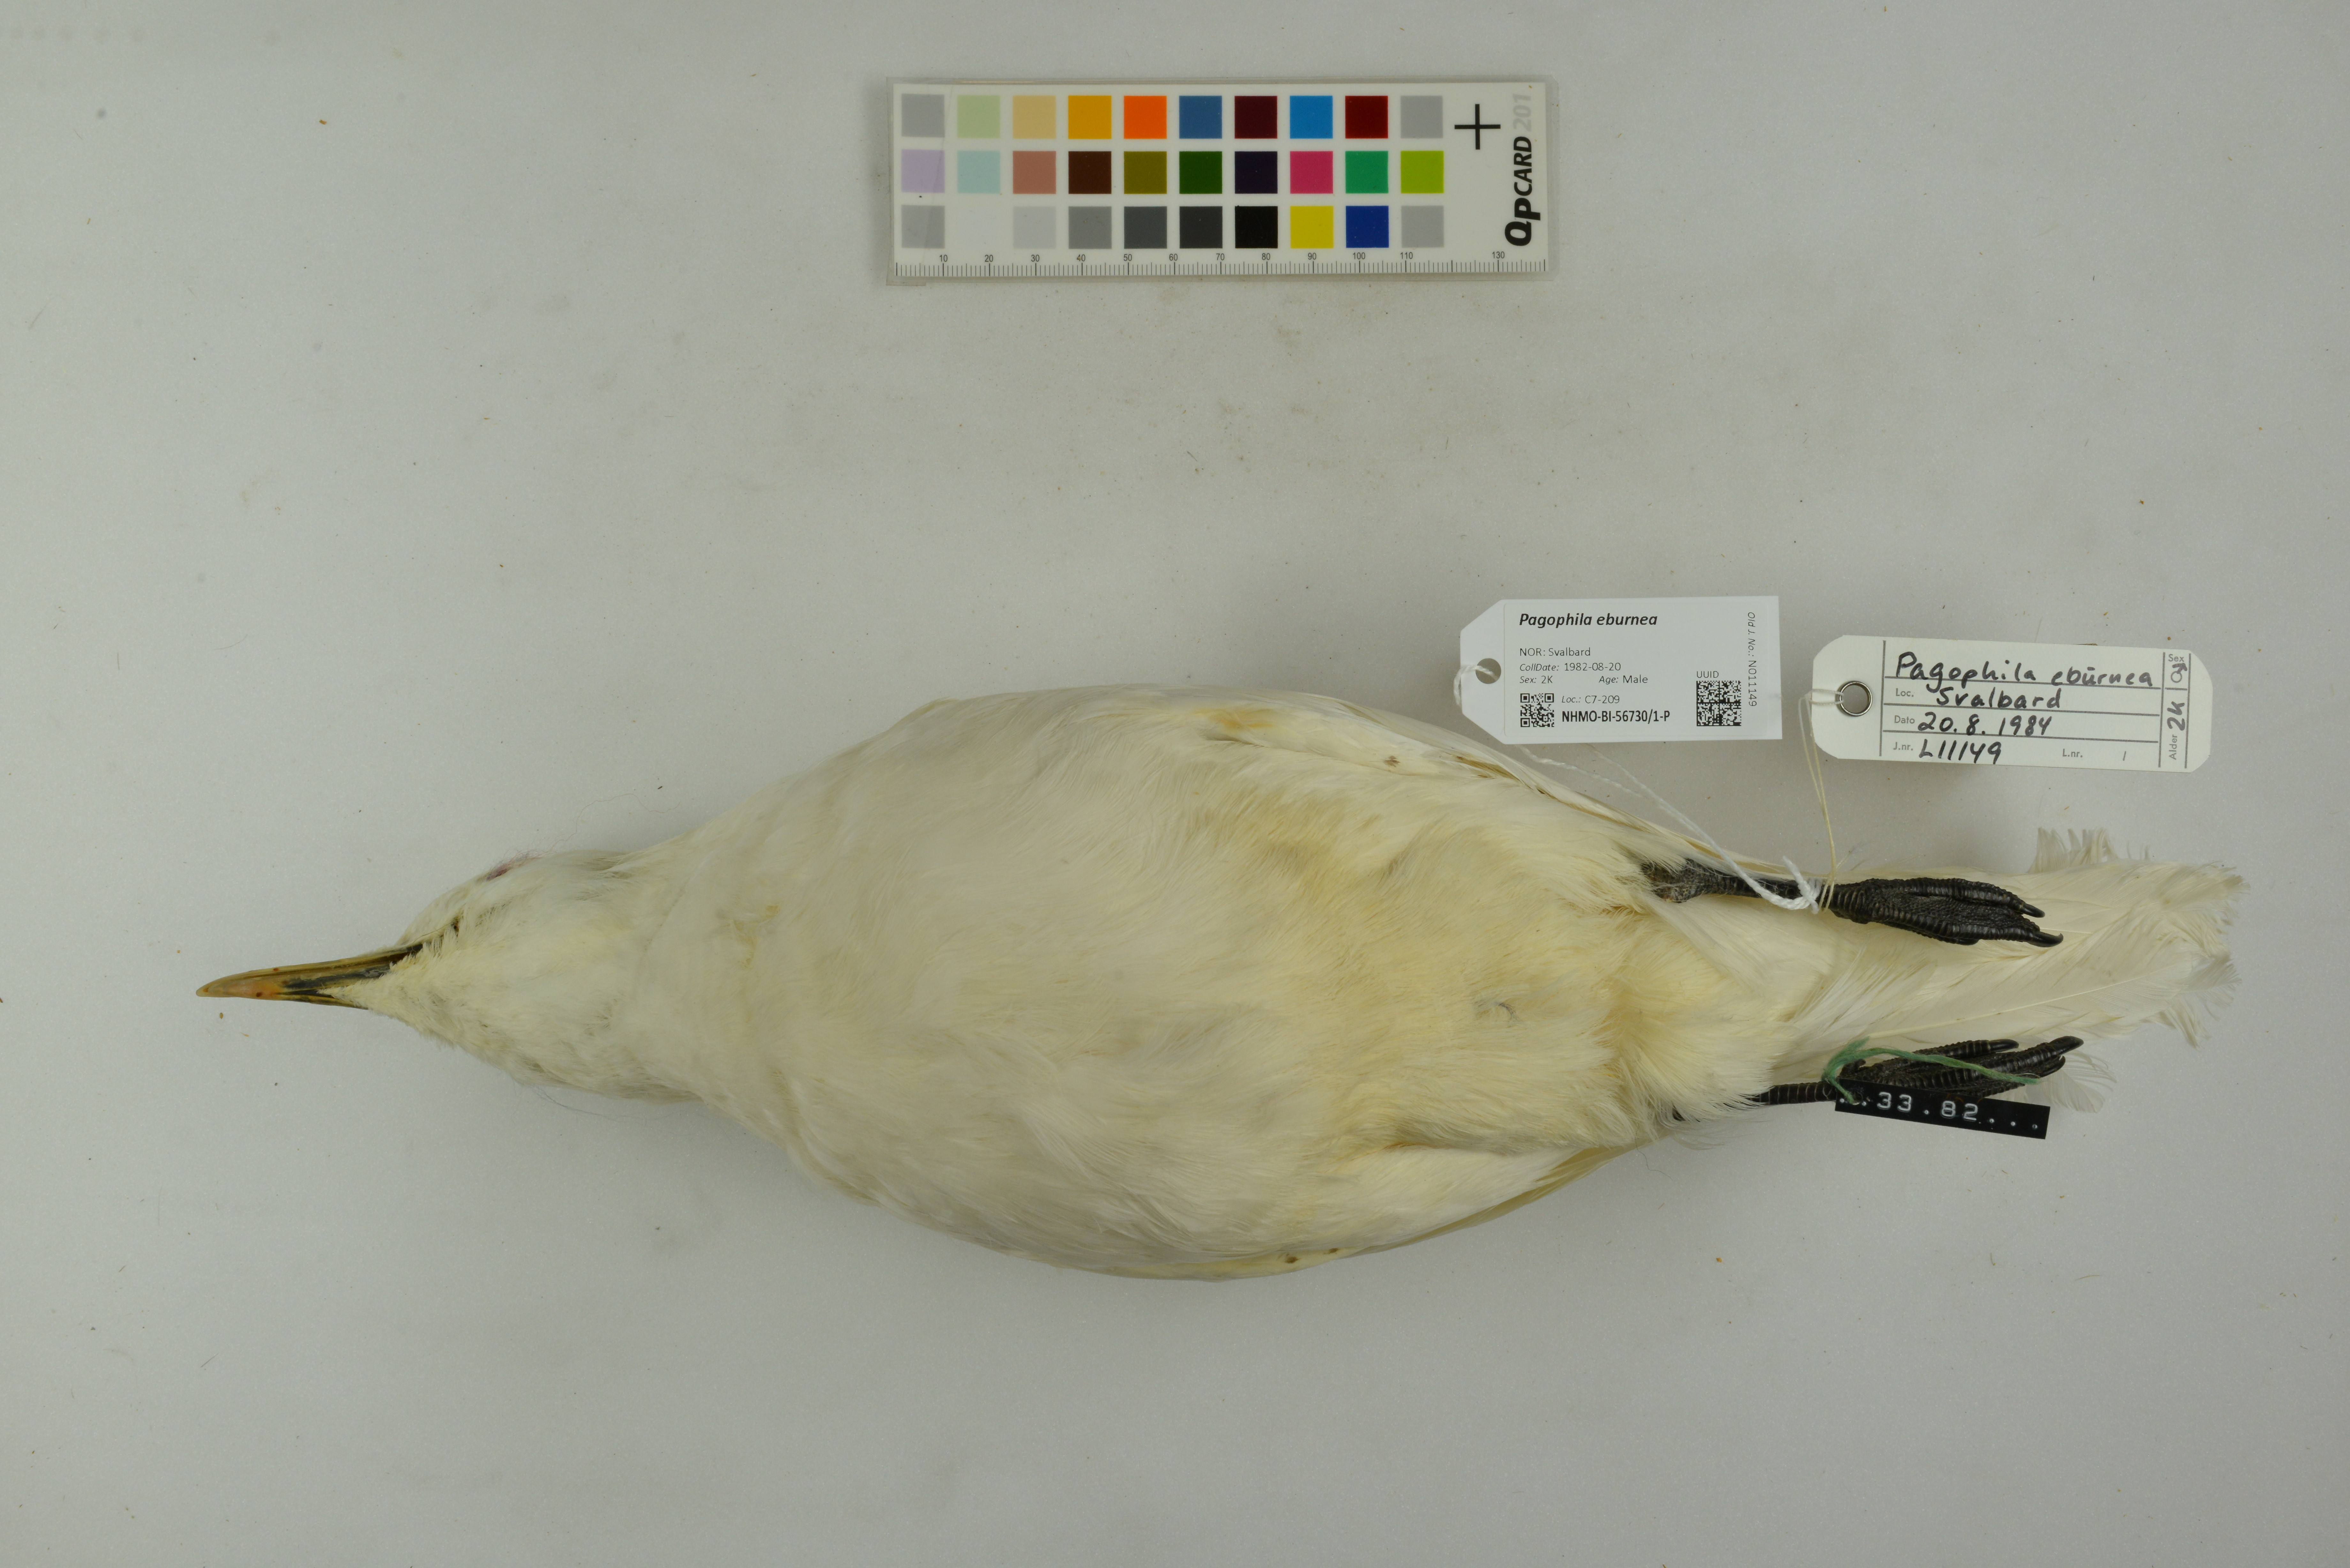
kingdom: Animalia
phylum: Chordata
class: Aves
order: Charadriiformes
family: Laridae
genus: Pagophila
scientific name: Pagophila eburnea
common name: Ivory gull
